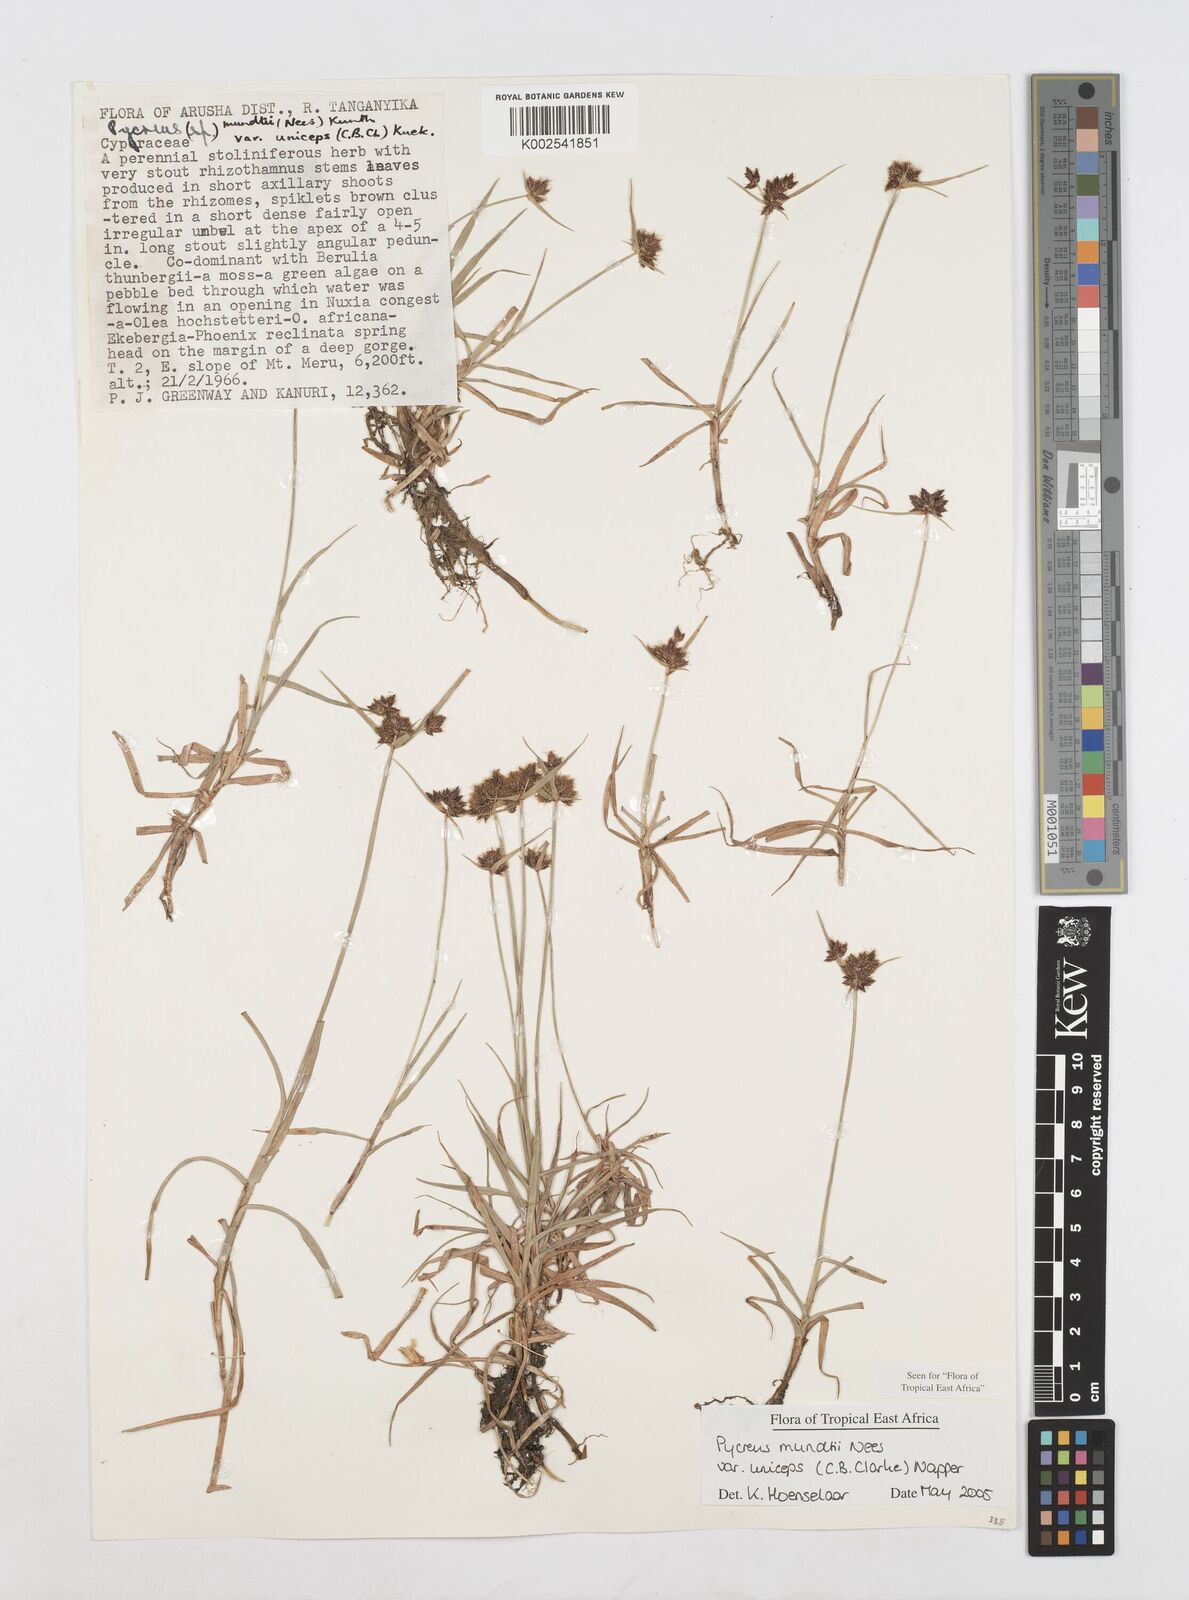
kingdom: Plantae
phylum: Tracheophyta
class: Liliopsida
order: Poales
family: Cyperaceae
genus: Cyperus
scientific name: Cyperus mundii
